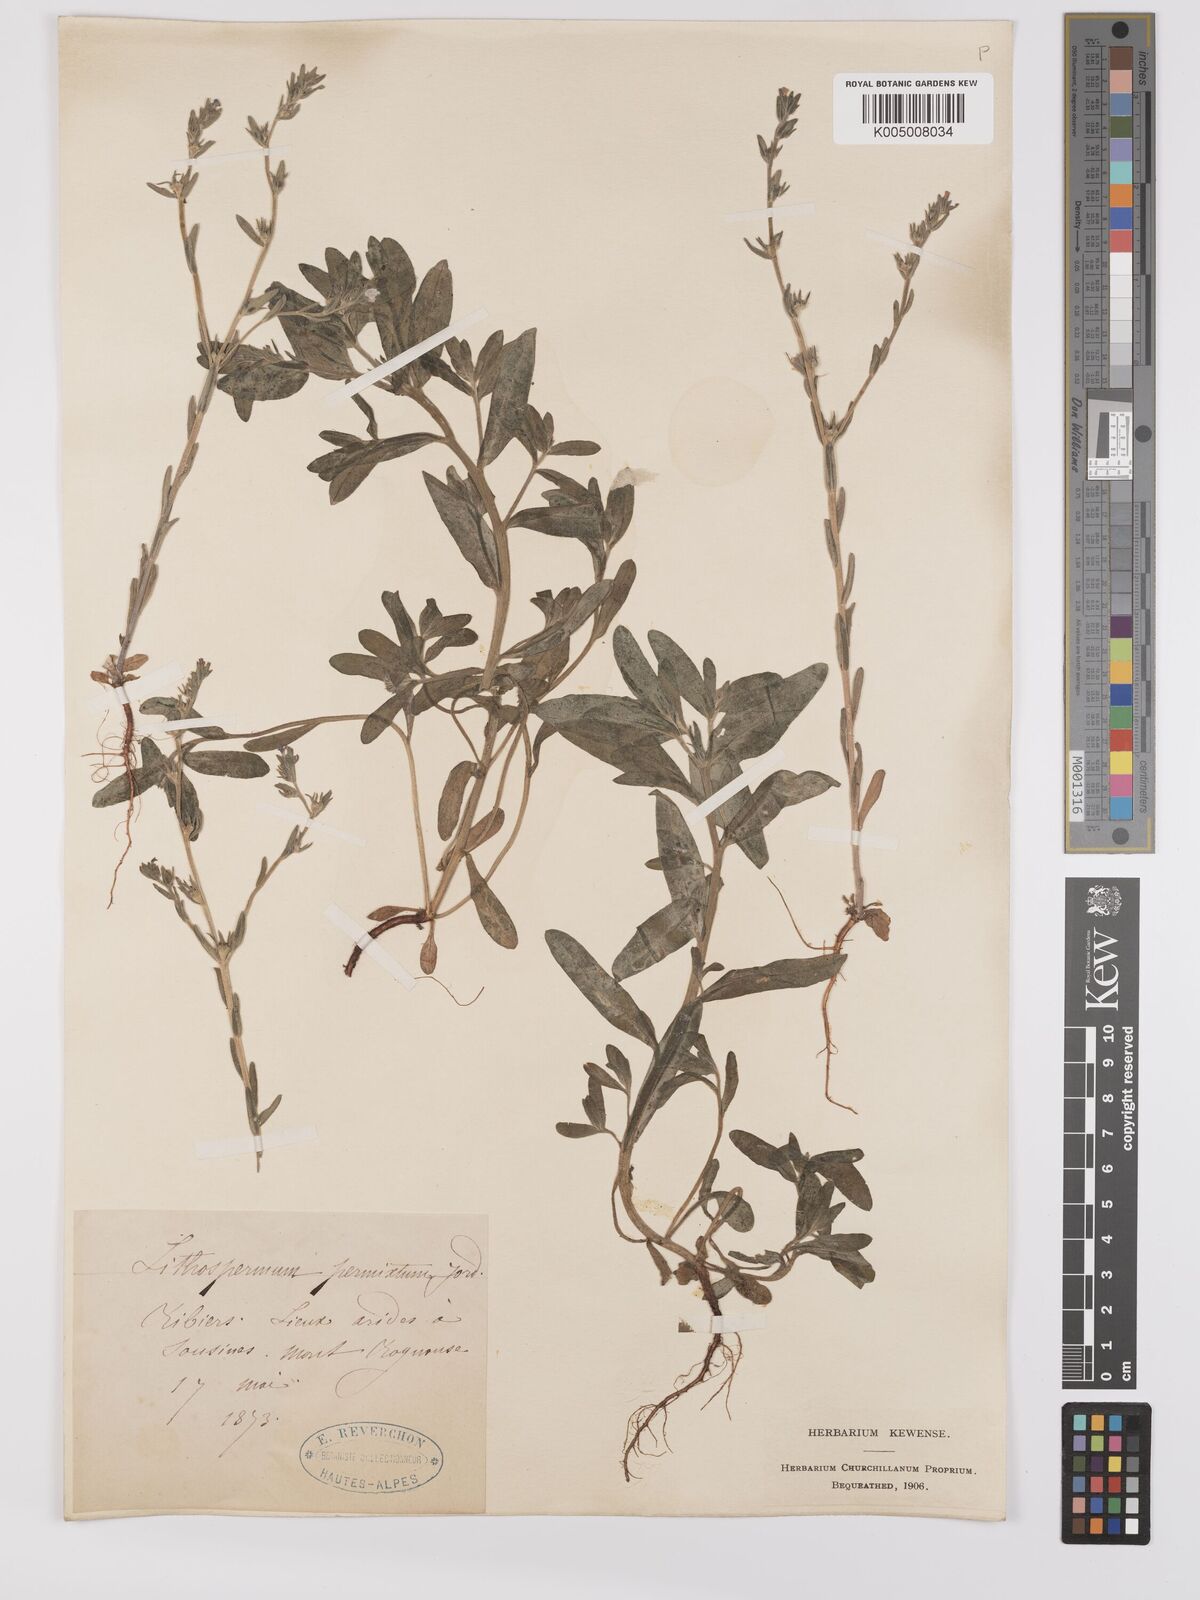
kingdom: Plantae
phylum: Tracheophyta
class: Magnoliopsida
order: Boraginales
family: Boraginaceae
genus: Buglossoides
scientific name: Buglossoides incrassata
